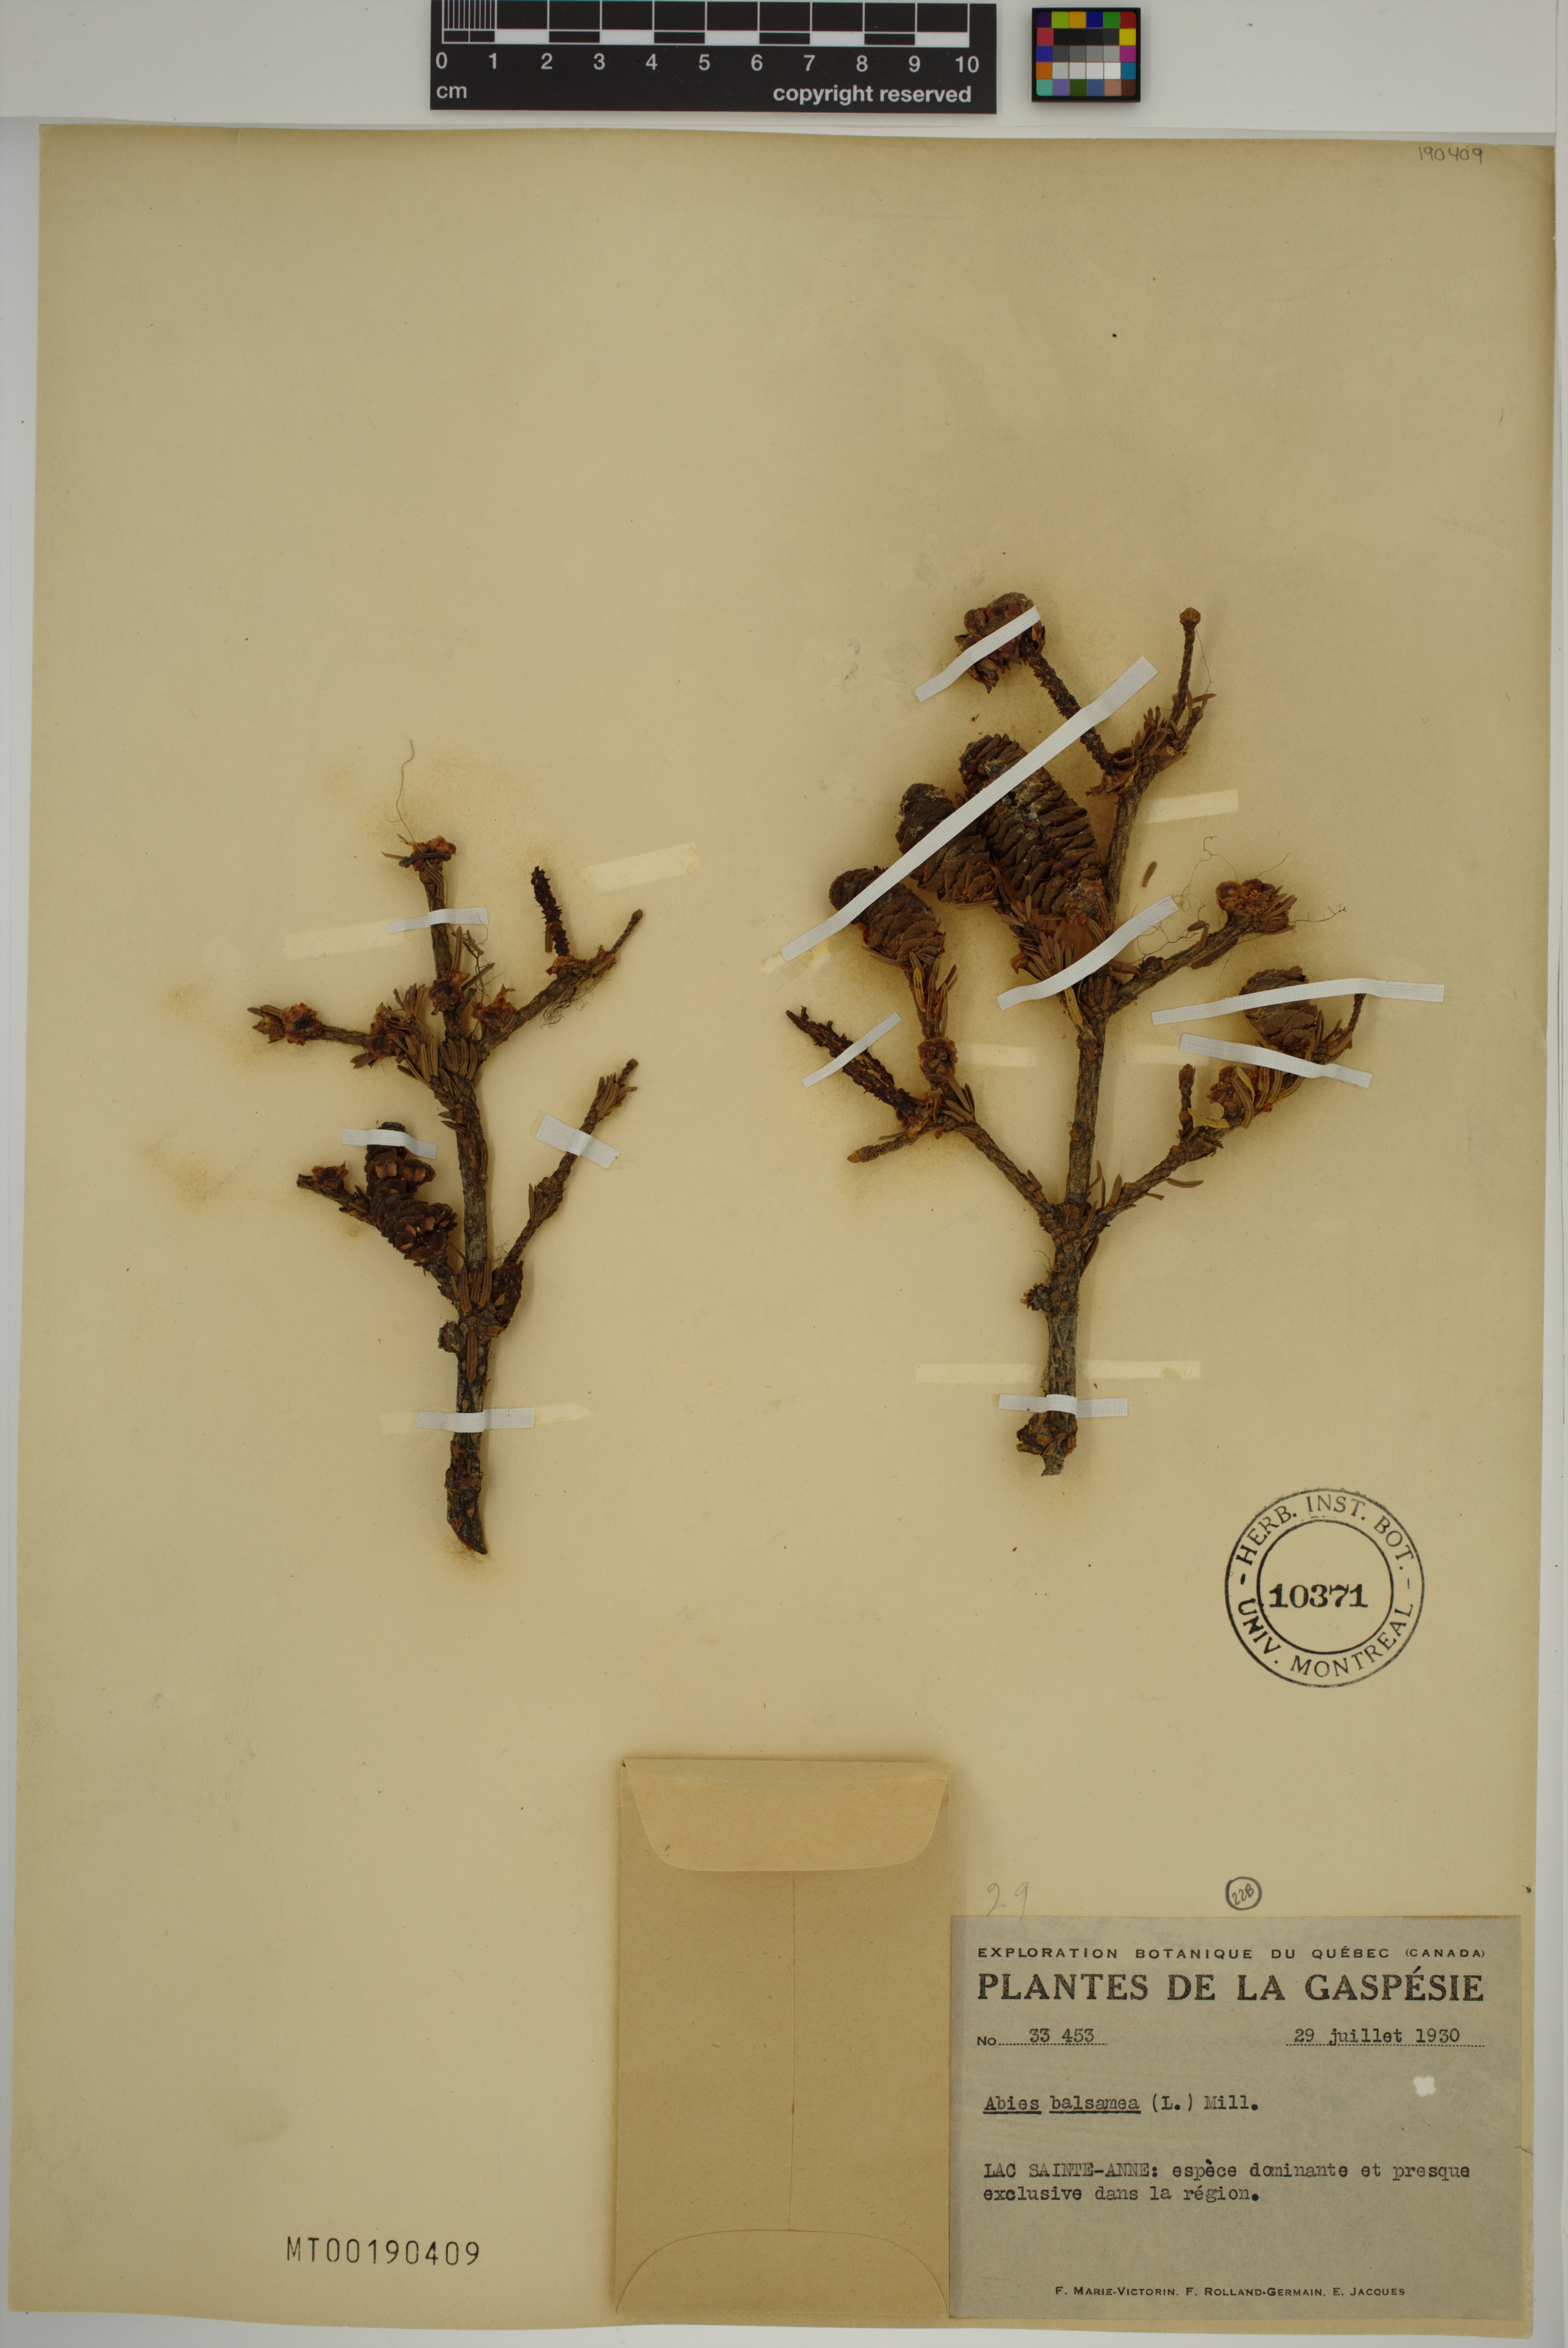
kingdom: Plantae
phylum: Tracheophyta
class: Pinopsida
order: Pinales
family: Pinaceae
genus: Abies
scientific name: Abies balsamea
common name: Balsam fir
